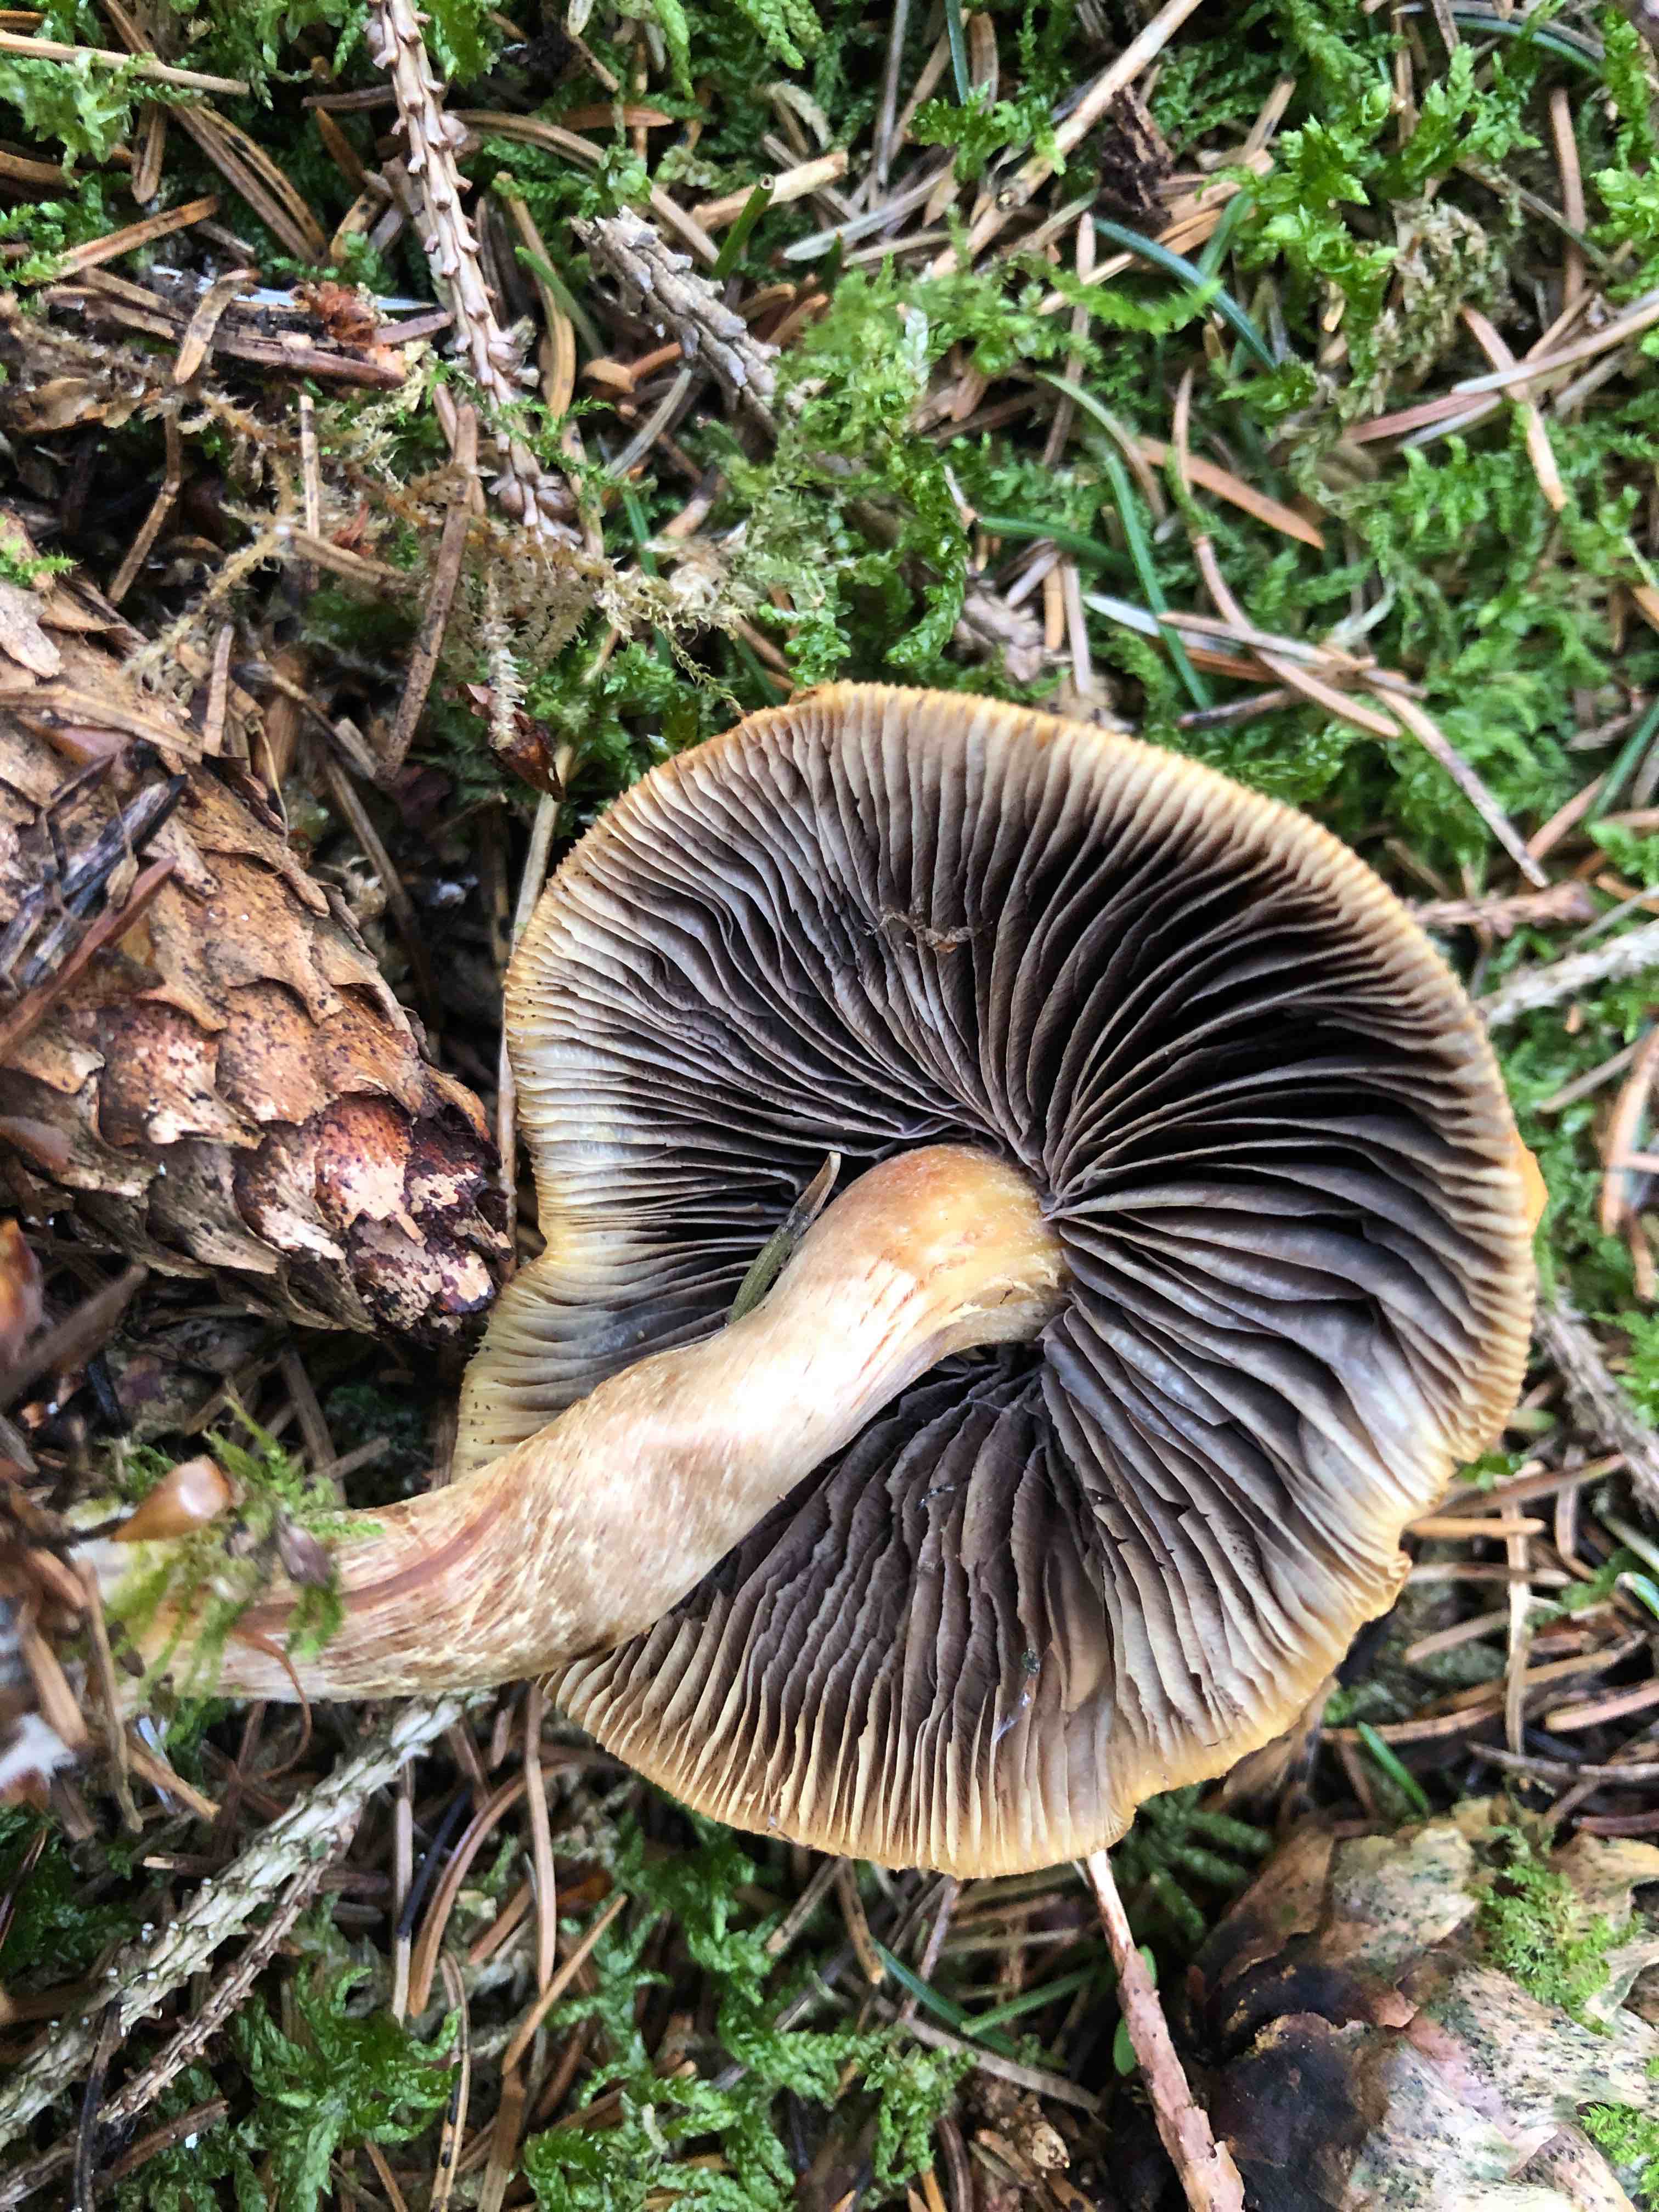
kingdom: Fungi
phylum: Basidiomycota
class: Agaricomycetes
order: Agaricales
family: Strophariaceae
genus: Hypholoma
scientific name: Hypholoma capnoides
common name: gran-svovlhat
